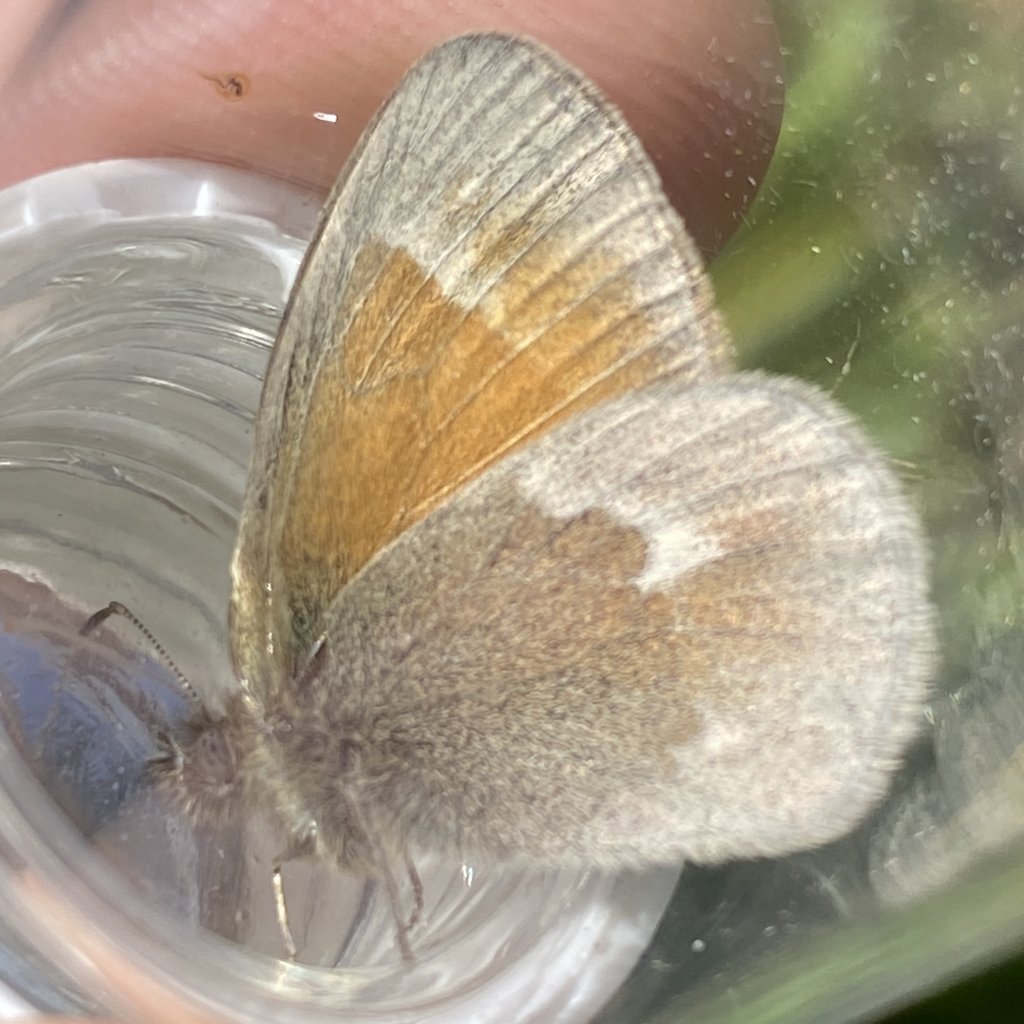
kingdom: Animalia
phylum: Arthropoda
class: Insecta
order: Lepidoptera
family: Nymphalidae
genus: Coenonympha
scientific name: Coenonympha tullia
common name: Large Heath
